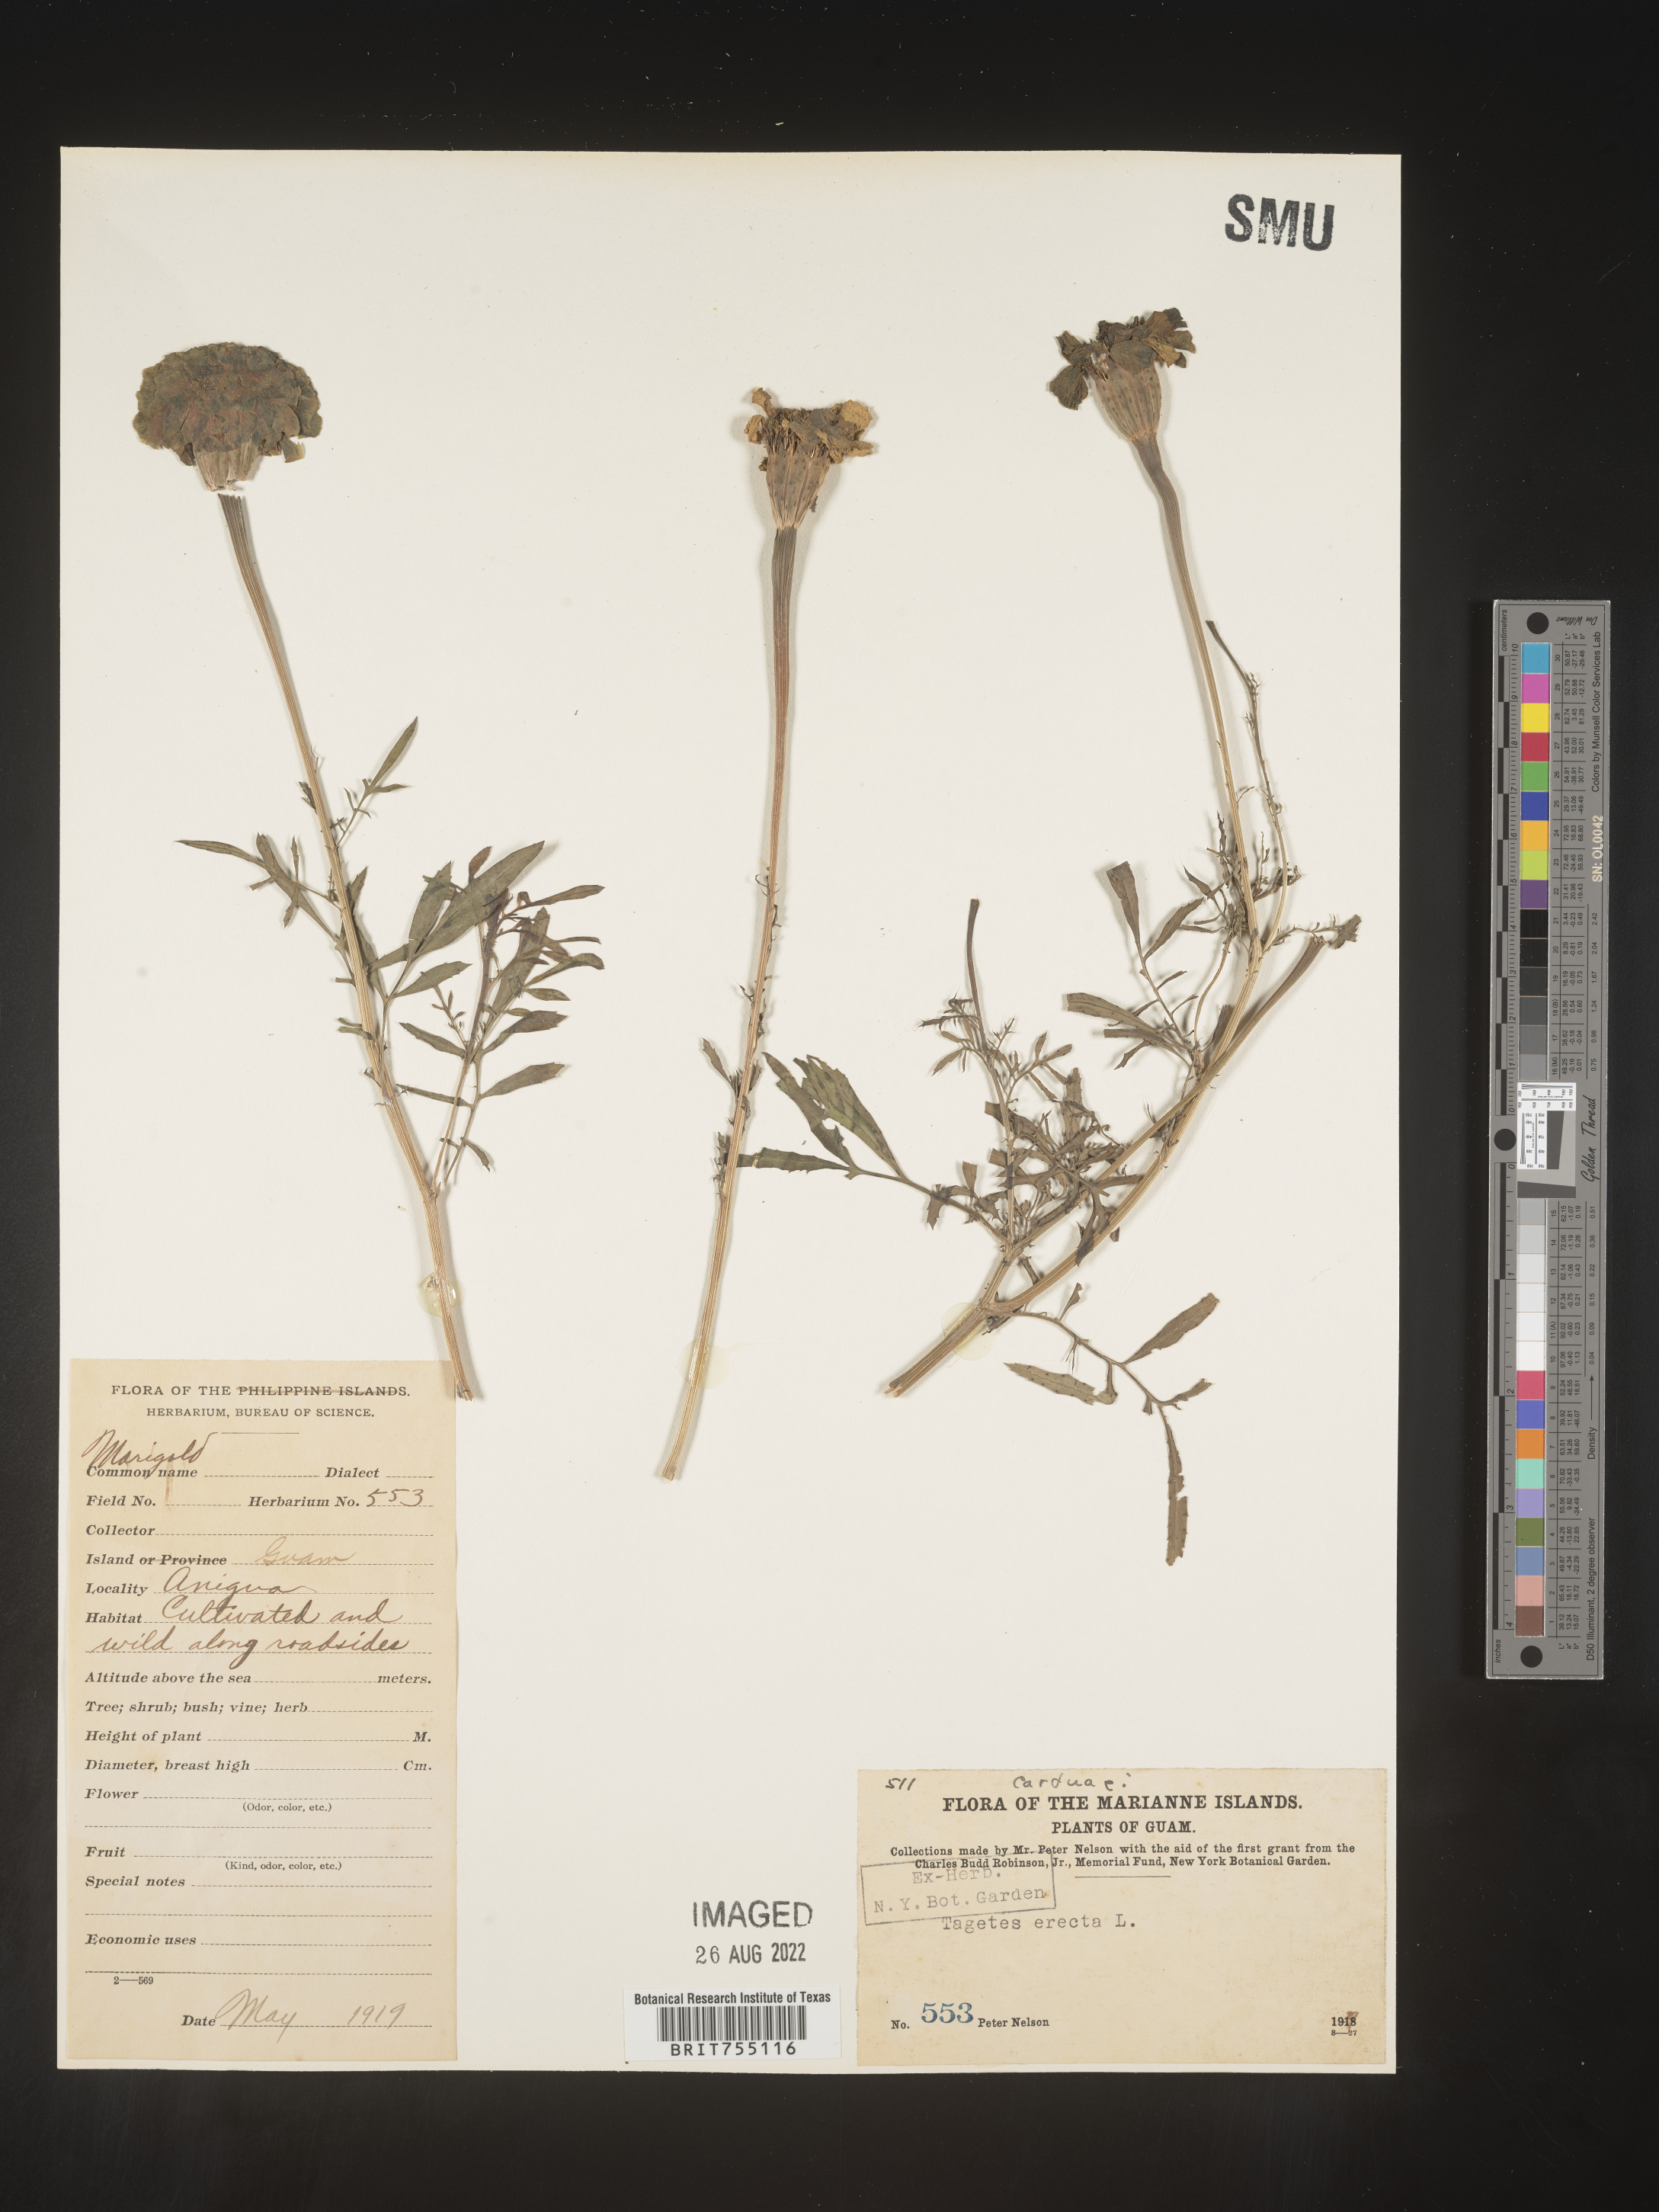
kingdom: Plantae
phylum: Tracheophyta
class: Magnoliopsida
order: Asterales
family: Asteraceae
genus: Tagetes
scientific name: Tagetes
